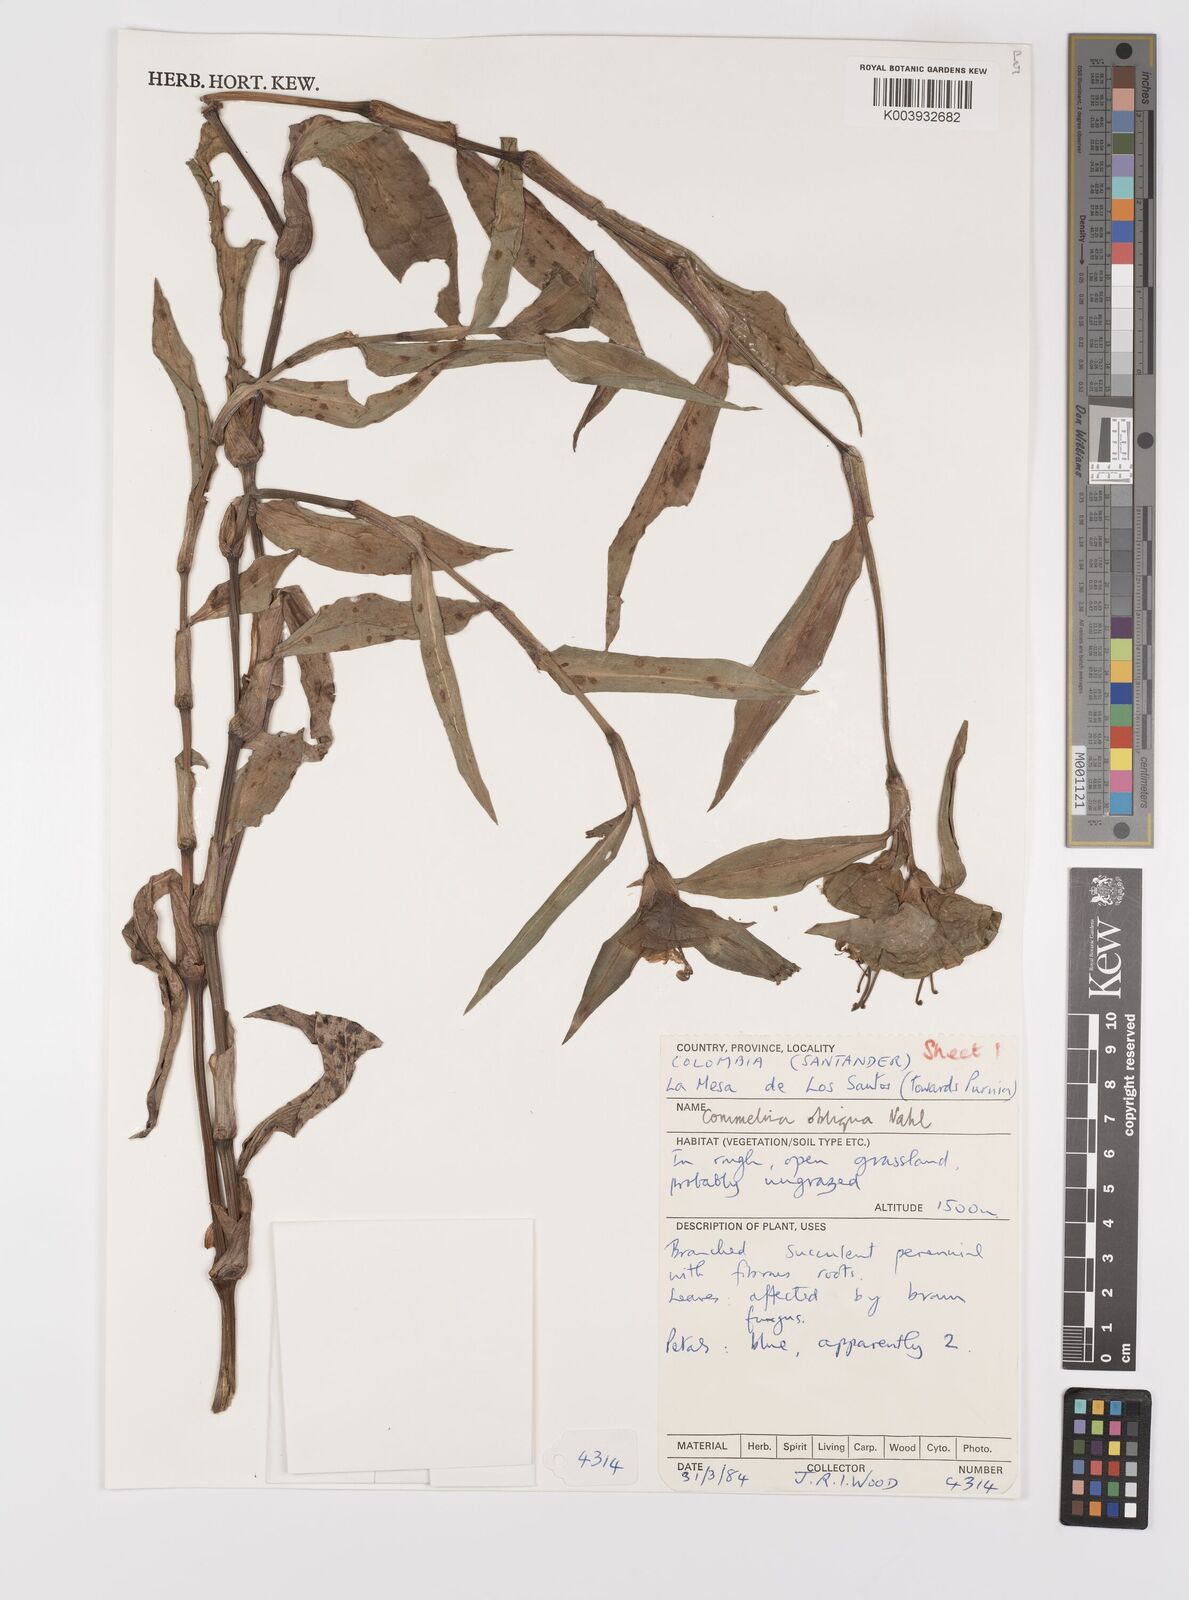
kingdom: Plantae
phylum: Tracheophyta
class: Liliopsida
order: Commelinales
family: Commelinaceae
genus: Commelina
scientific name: Commelina obliqua
